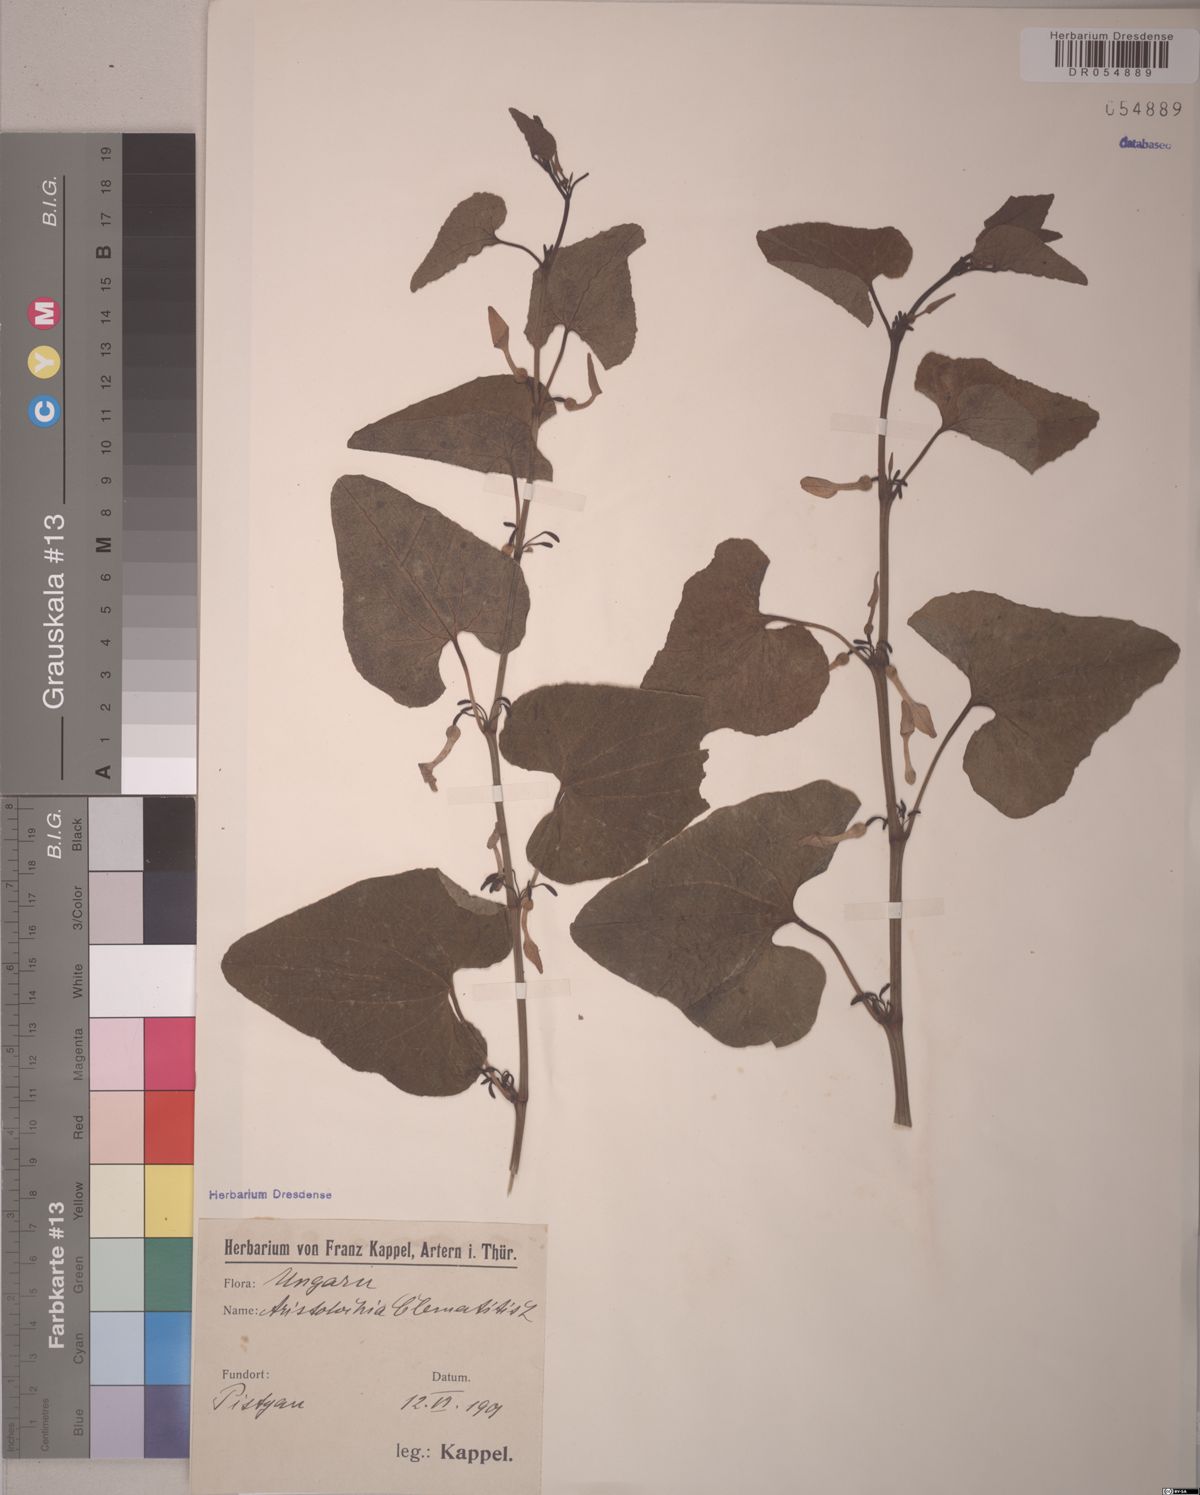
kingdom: Plantae
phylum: Tracheophyta
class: Magnoliopsida
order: Piperales
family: Aristolochiaceae
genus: Aristolochia
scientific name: Aristolochia clematitis
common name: Birthwort
